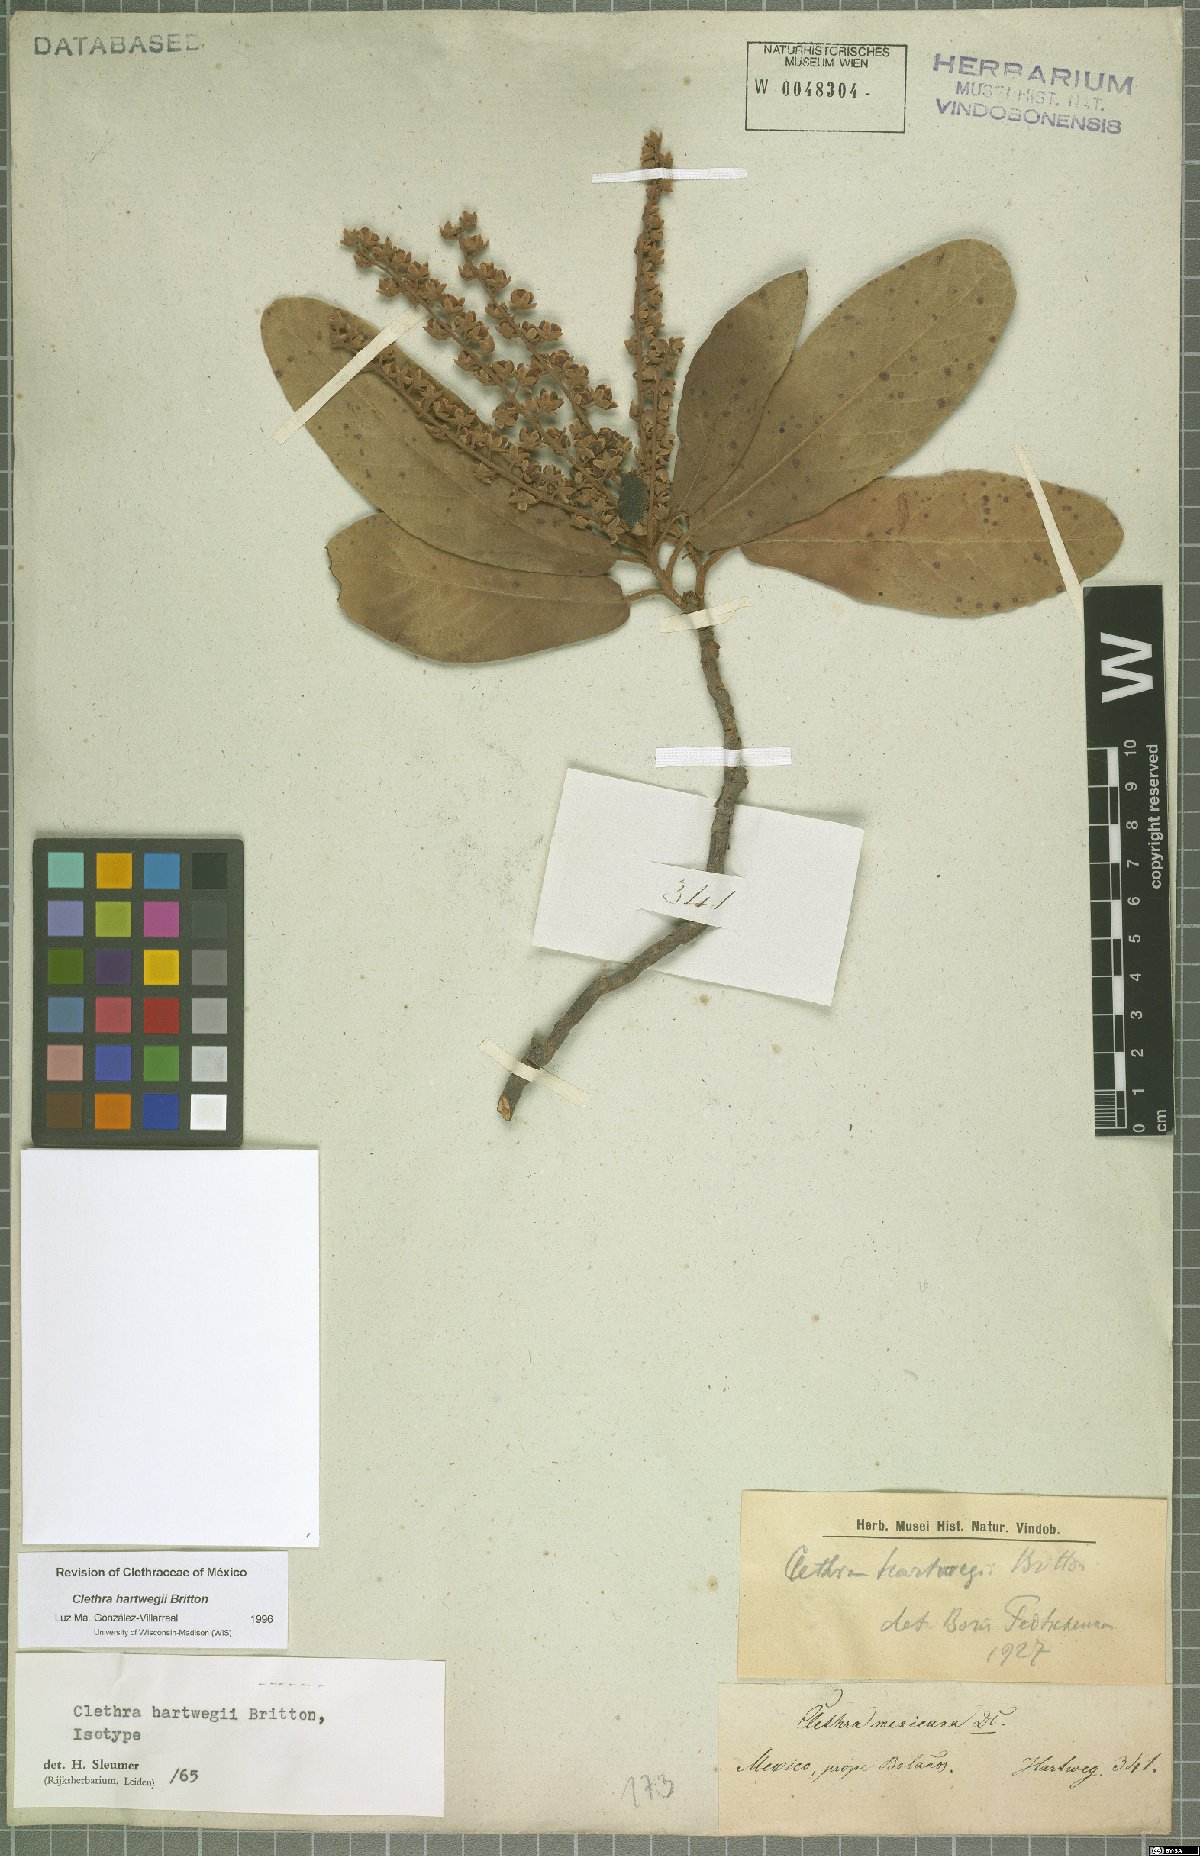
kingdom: Plantae
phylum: Tracheophyta
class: Magnoliopsida
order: Ericales
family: Clethraceae
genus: Clethra
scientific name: Clethra hartwegii
